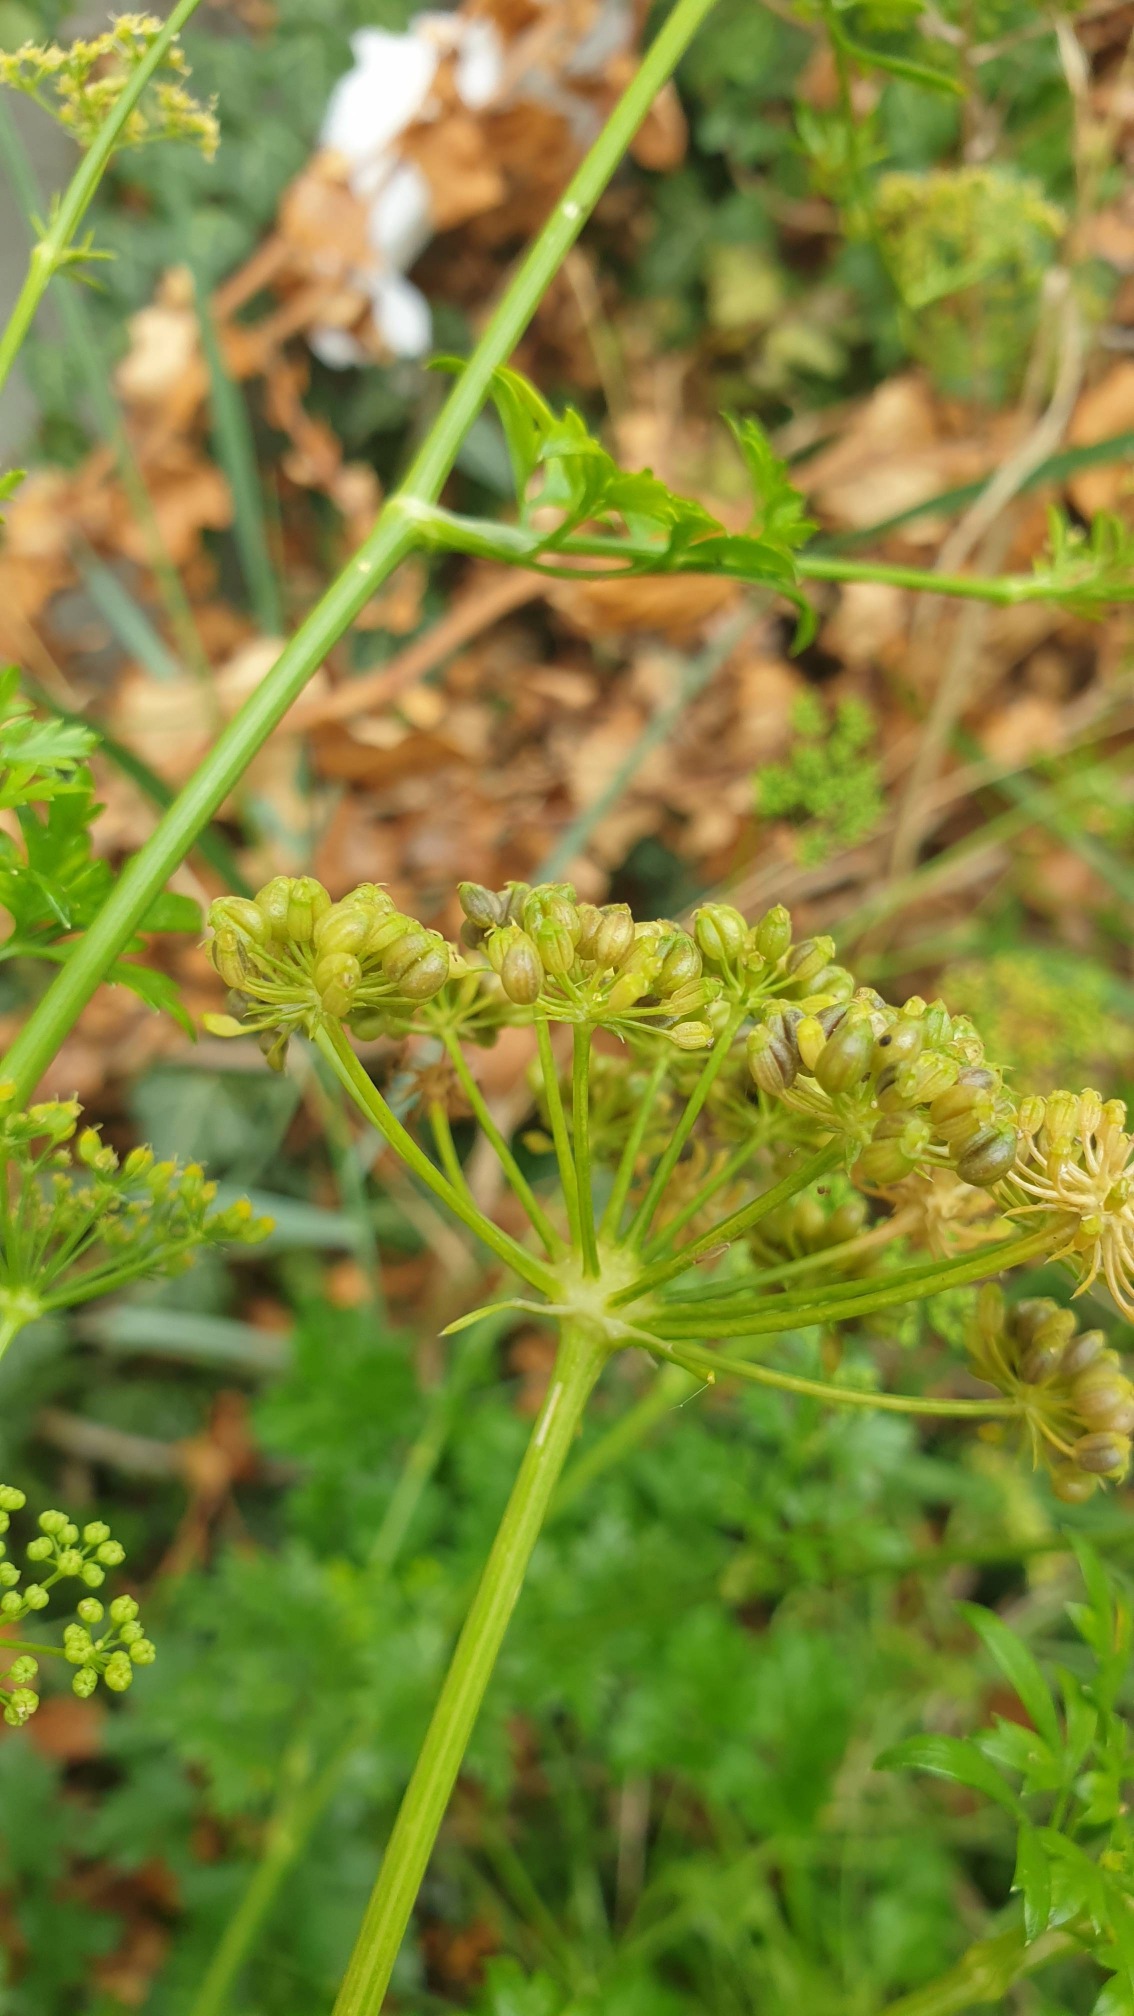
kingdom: Plantae
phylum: Tracheophyta
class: Magnoliopsida
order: Apiales
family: Apiaceae
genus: Petroselinum
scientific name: Petroselinum crispum
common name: Persille
